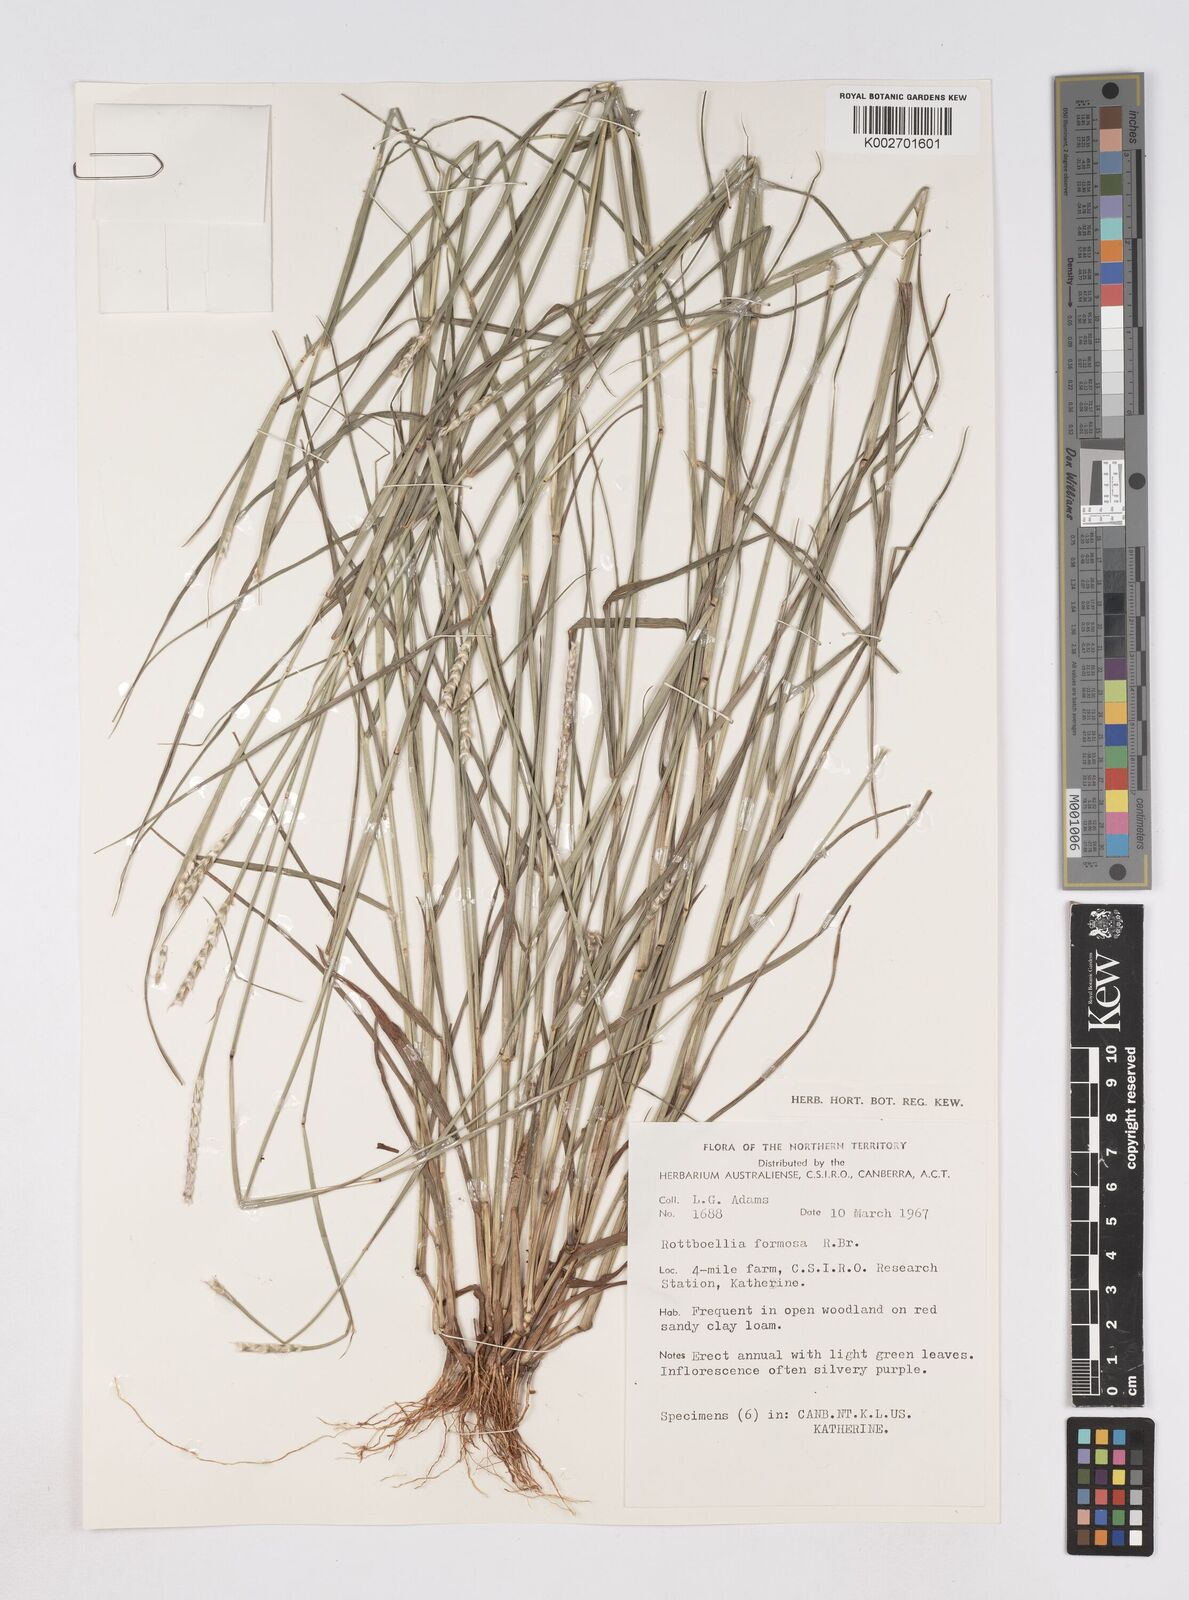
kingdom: Plantae
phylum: Tracheophyta
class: Liliopsida
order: Poales
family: Poaceae
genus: Heteropholis
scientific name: Heteropholis
